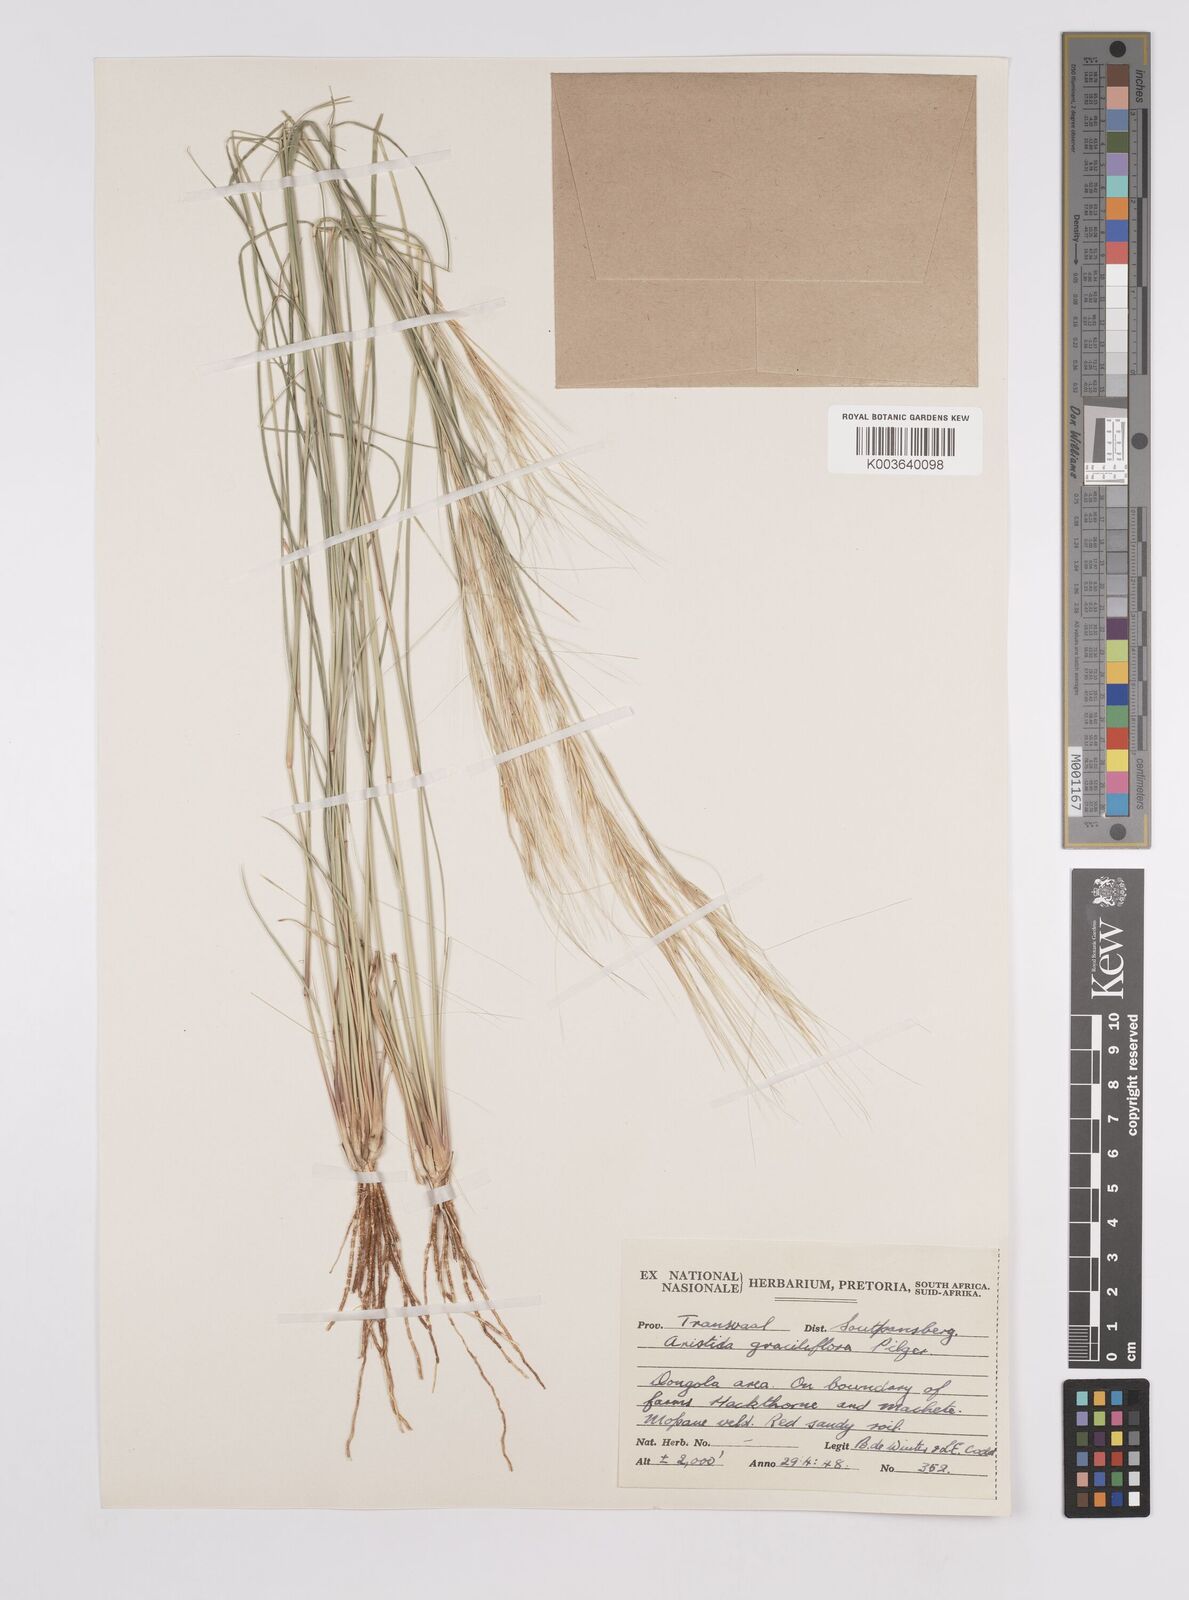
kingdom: Plantae
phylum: Tracheophyta
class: Liliopsida
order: Poales
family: Poaceae
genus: Aristida
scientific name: Aristida stipitata
